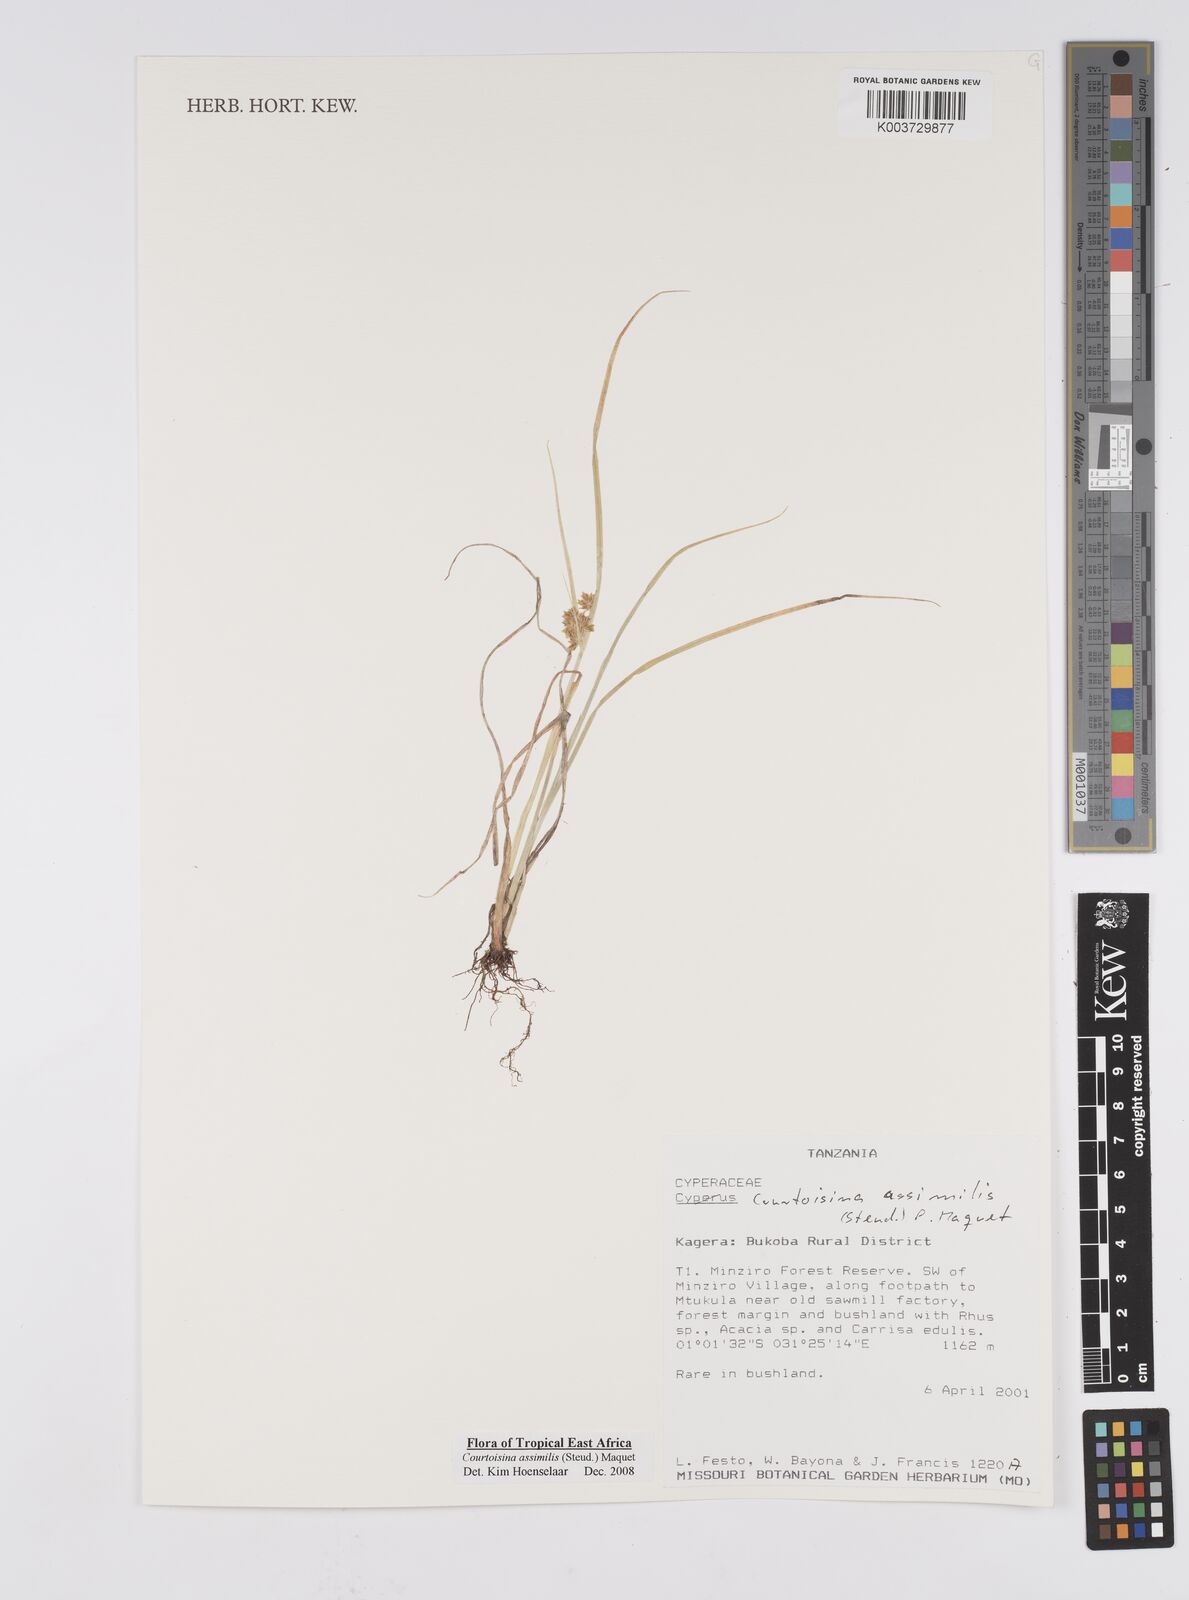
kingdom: Plantae
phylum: Tracheophyta
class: Liliopsida
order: Poales
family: Cyperaceae
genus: Cyperus
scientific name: Cyperus assimilis
